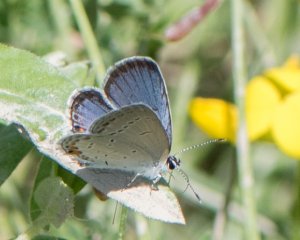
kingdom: Animalia
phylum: Arthropoda
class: Insecta
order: Lepidoptera
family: Lycaenidae
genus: Elkalyce
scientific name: Elkalyce comyntas
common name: Eastern Tailed-Blue
